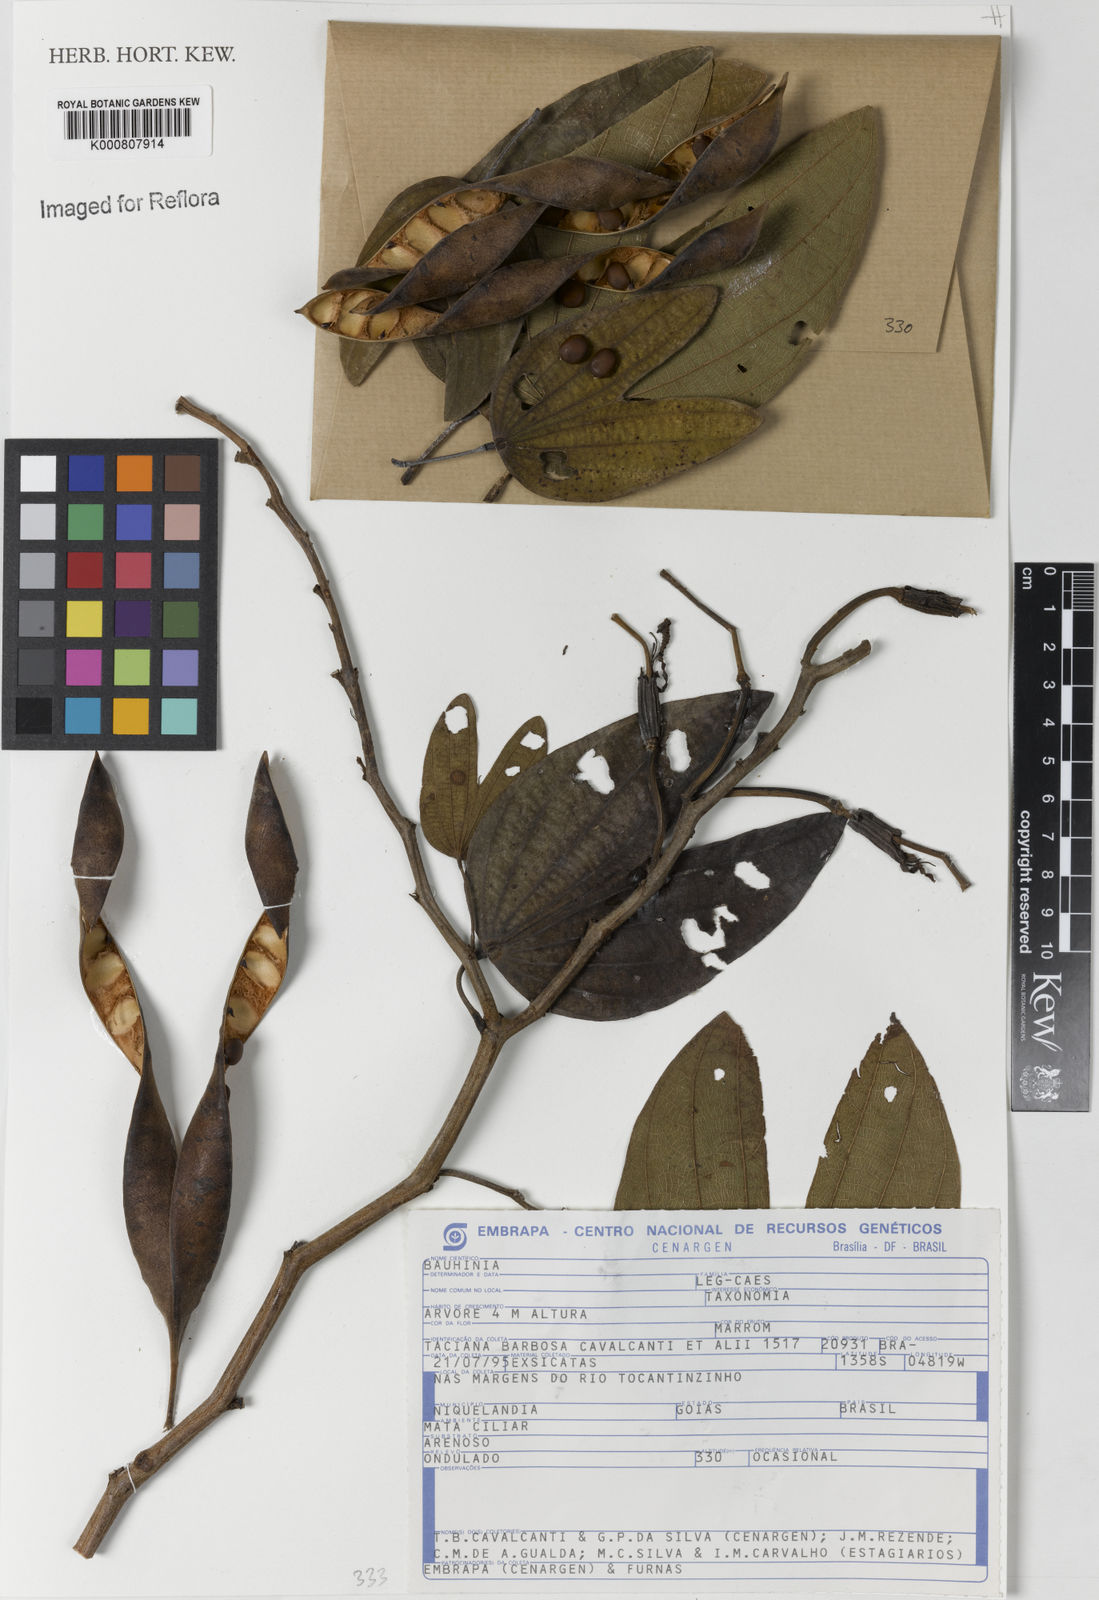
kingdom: Plantae
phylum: Tracheophyta
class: Magnoliopsida
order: Fabales
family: Fabaceae
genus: Bauhinia
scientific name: Bauhinia
